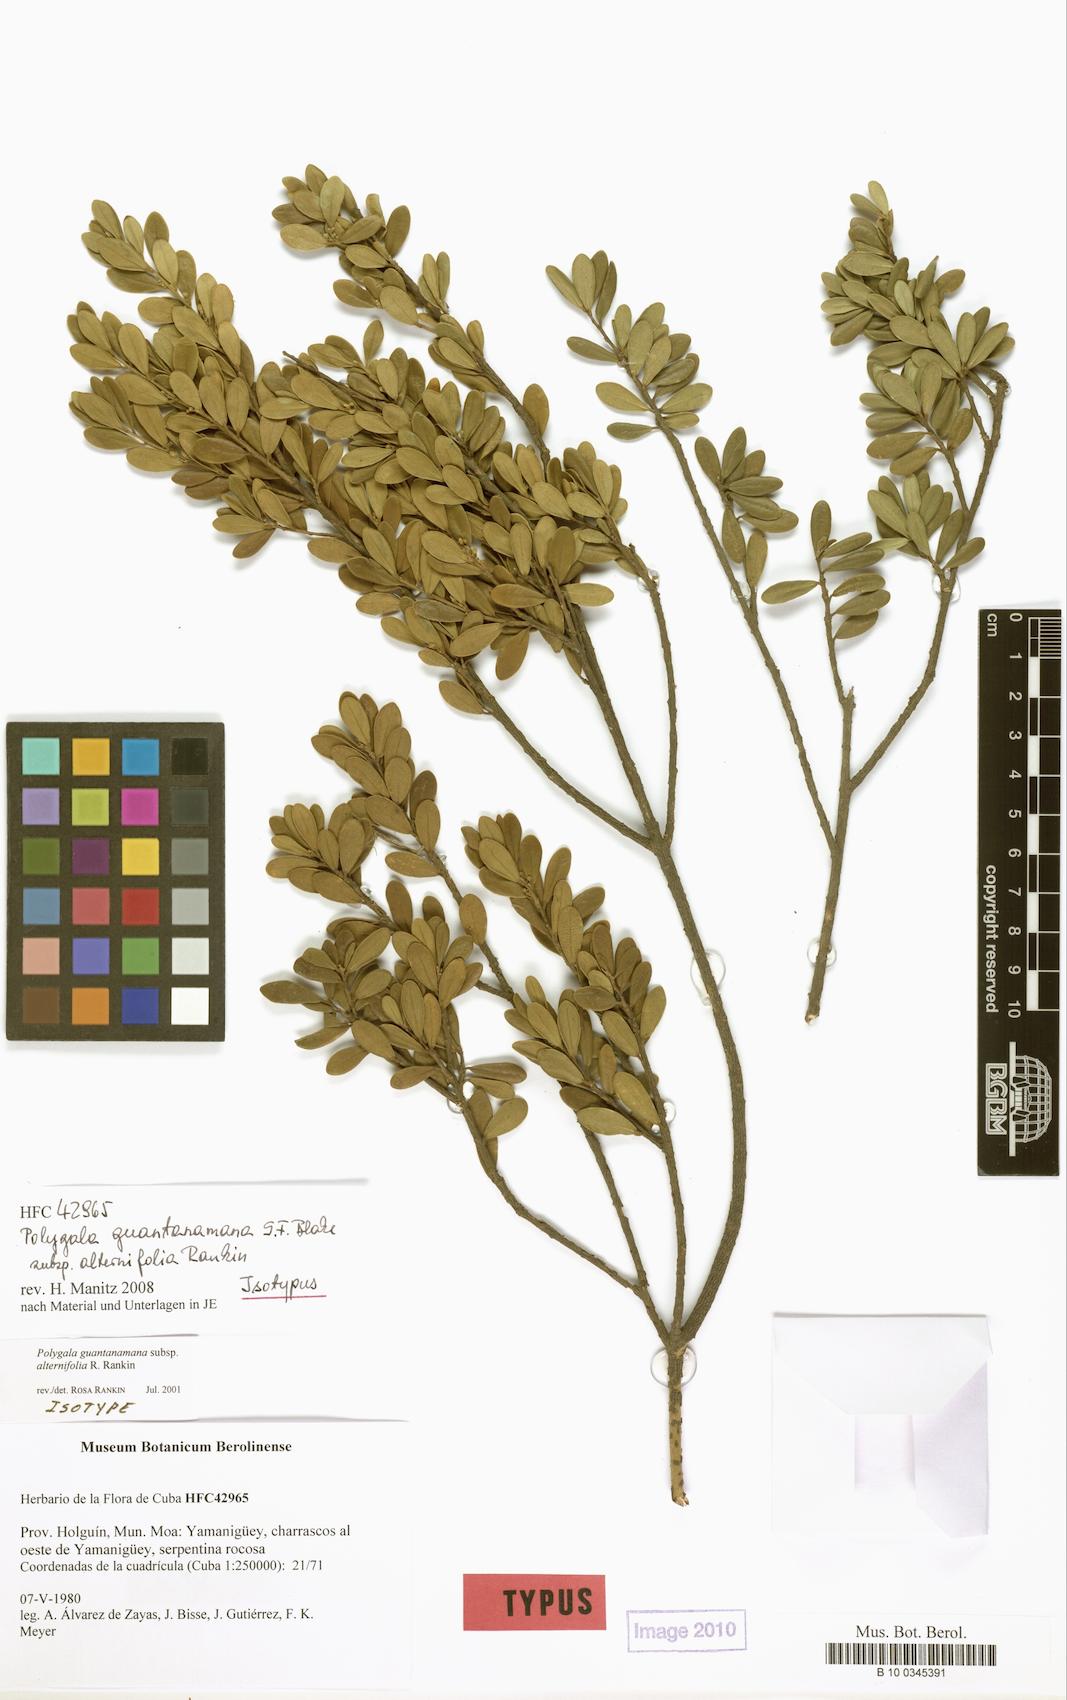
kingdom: Plantae
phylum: Tracheophyta
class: Magnoliopsida
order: Fabales
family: Polygalaceae
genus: Badiera
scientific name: Badiera virgata
